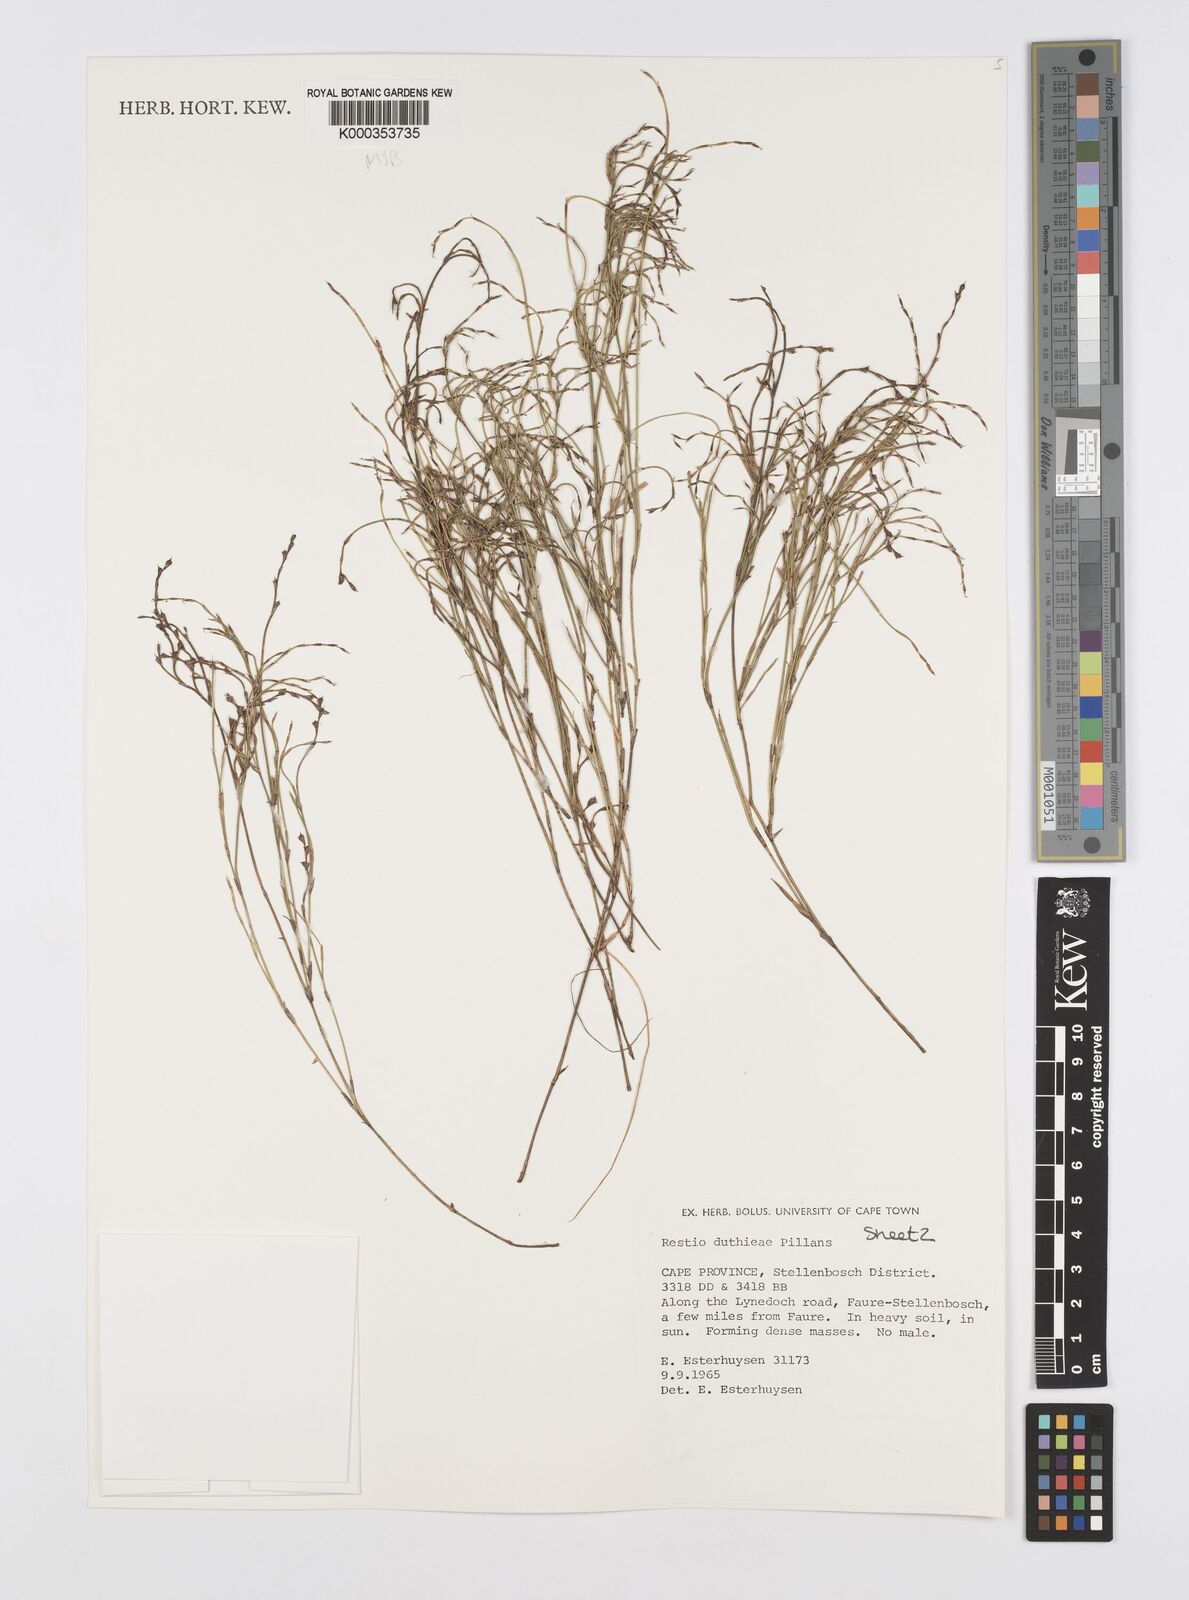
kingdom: Plantae
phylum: Tracheophyta
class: Liliopsida
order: Poales
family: Restionaceae
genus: Restio
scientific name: Restio duthieae
